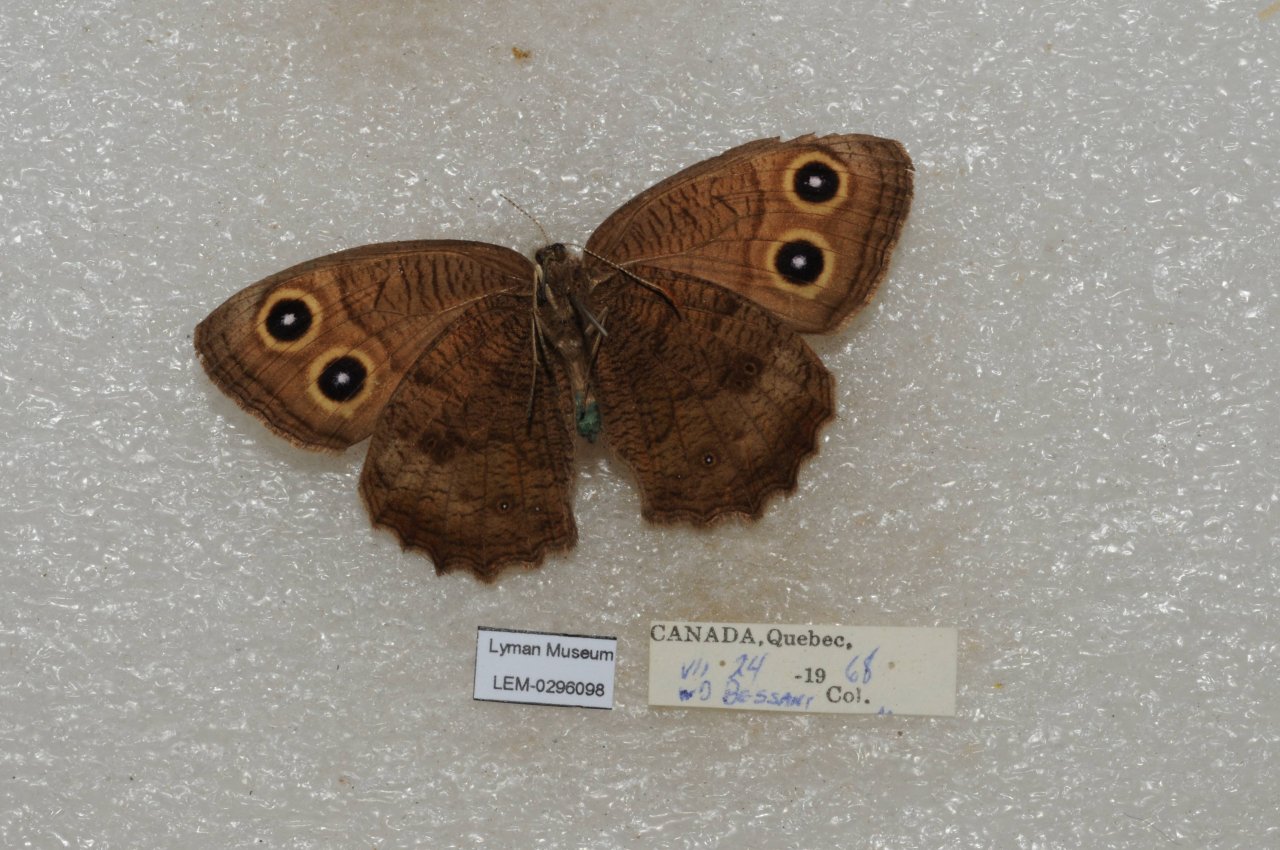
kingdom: Animalia
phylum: Arthropoda
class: Insecta
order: Lepidoptera
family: Nymphalidae
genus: Cercyonis
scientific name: Cercyonis pegala
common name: Common Wood-Nymph
